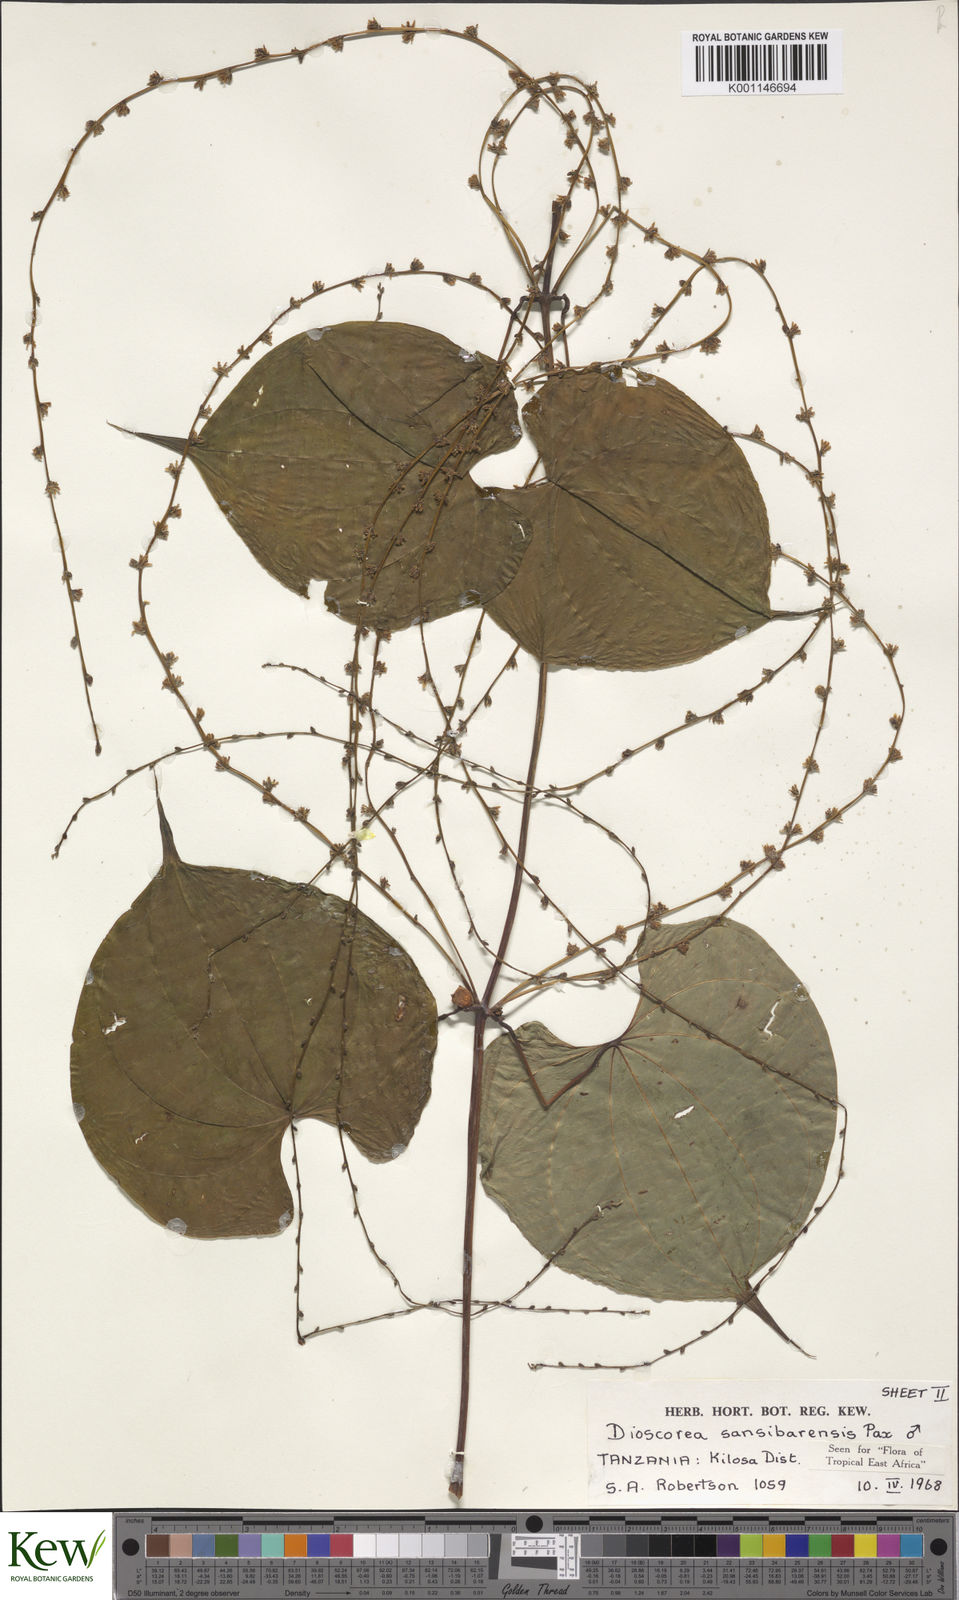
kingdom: Plantae
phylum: Tracheophyta
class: Liliopsida
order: Dioscoreales
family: Dioscoreaceae
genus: Dioscorea
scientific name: Dioscorea sansibarensis
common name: Zanzibar yam
